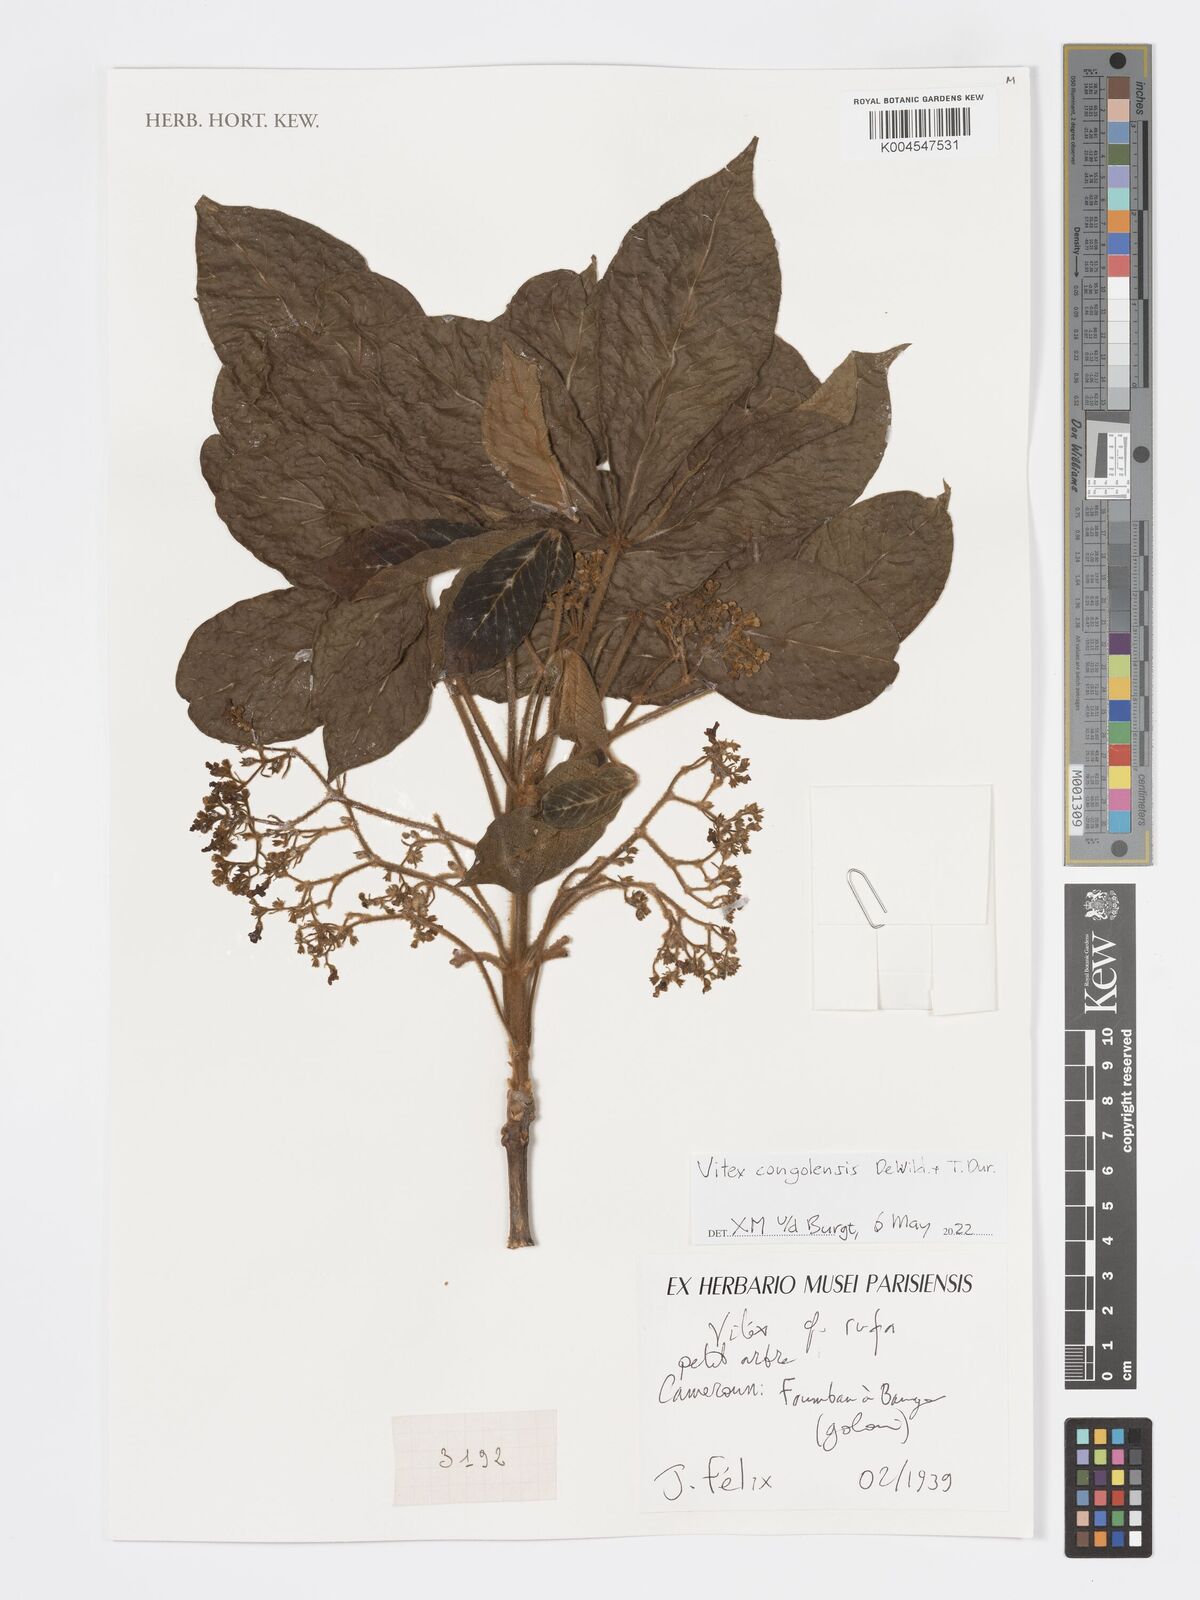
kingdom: Plantae
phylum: Tracheophyta
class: Magnoliopsida
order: Lamiales
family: Lamiaceae
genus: Vitex
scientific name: Vitex congolensis
